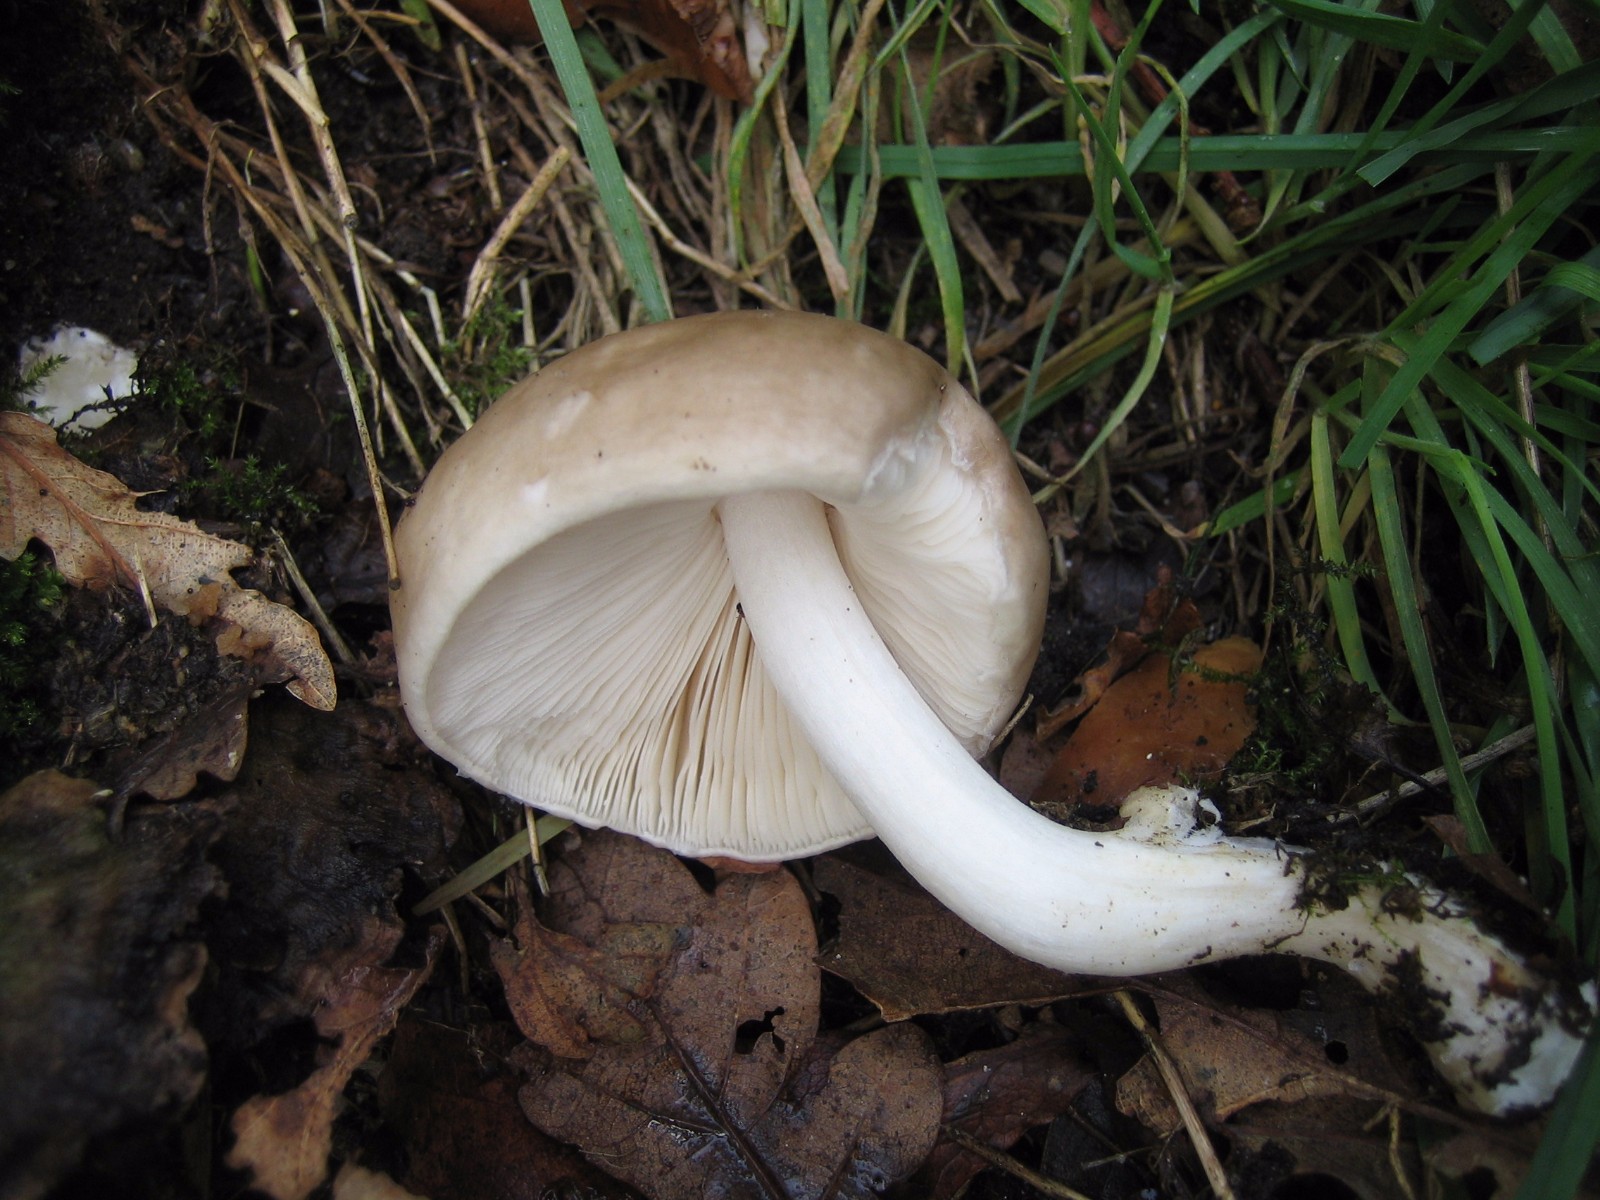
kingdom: Fungi
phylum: Basidiomycota
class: Agaricomycetes
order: Agaricales
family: Pluteaceae
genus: Pluteus
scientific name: Pluteus
